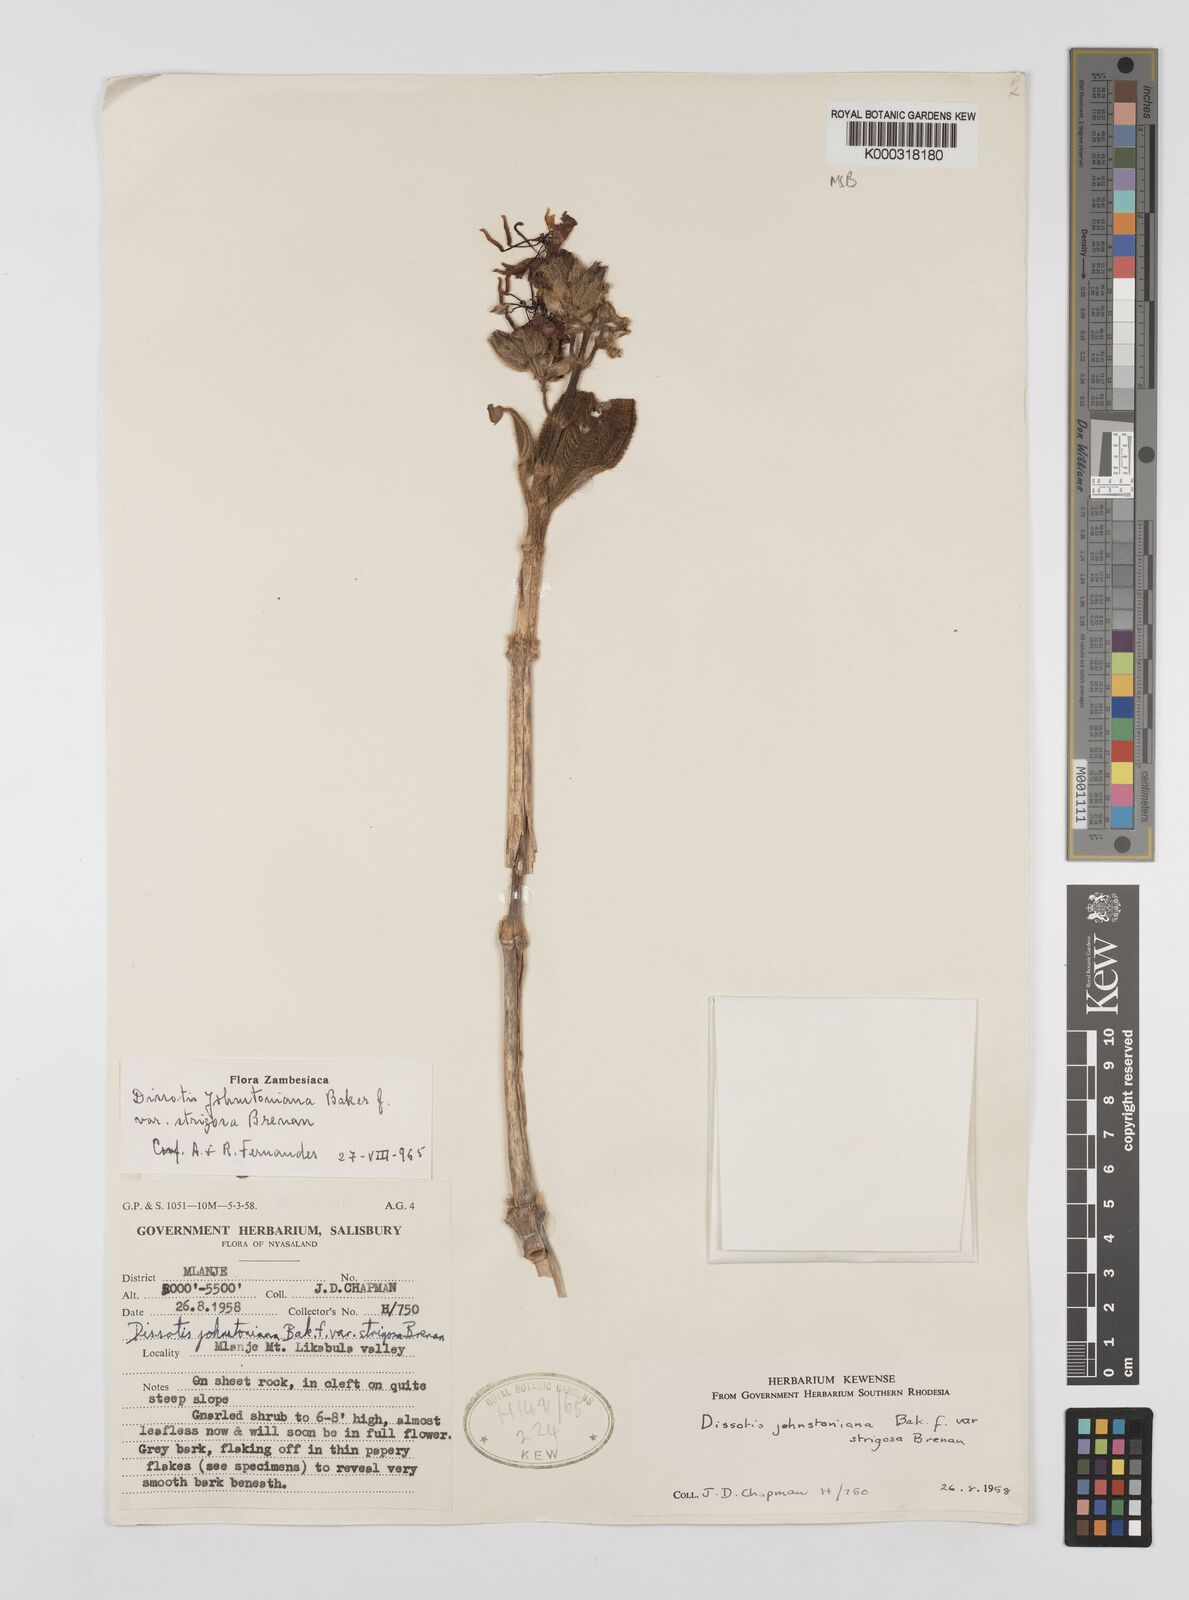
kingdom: Plantae
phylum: Tracheophyta
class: Magnoliopsida
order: Myrtales
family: Melastomataceae
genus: Dissotidendron
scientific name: Dissotidendron johnstonianum
